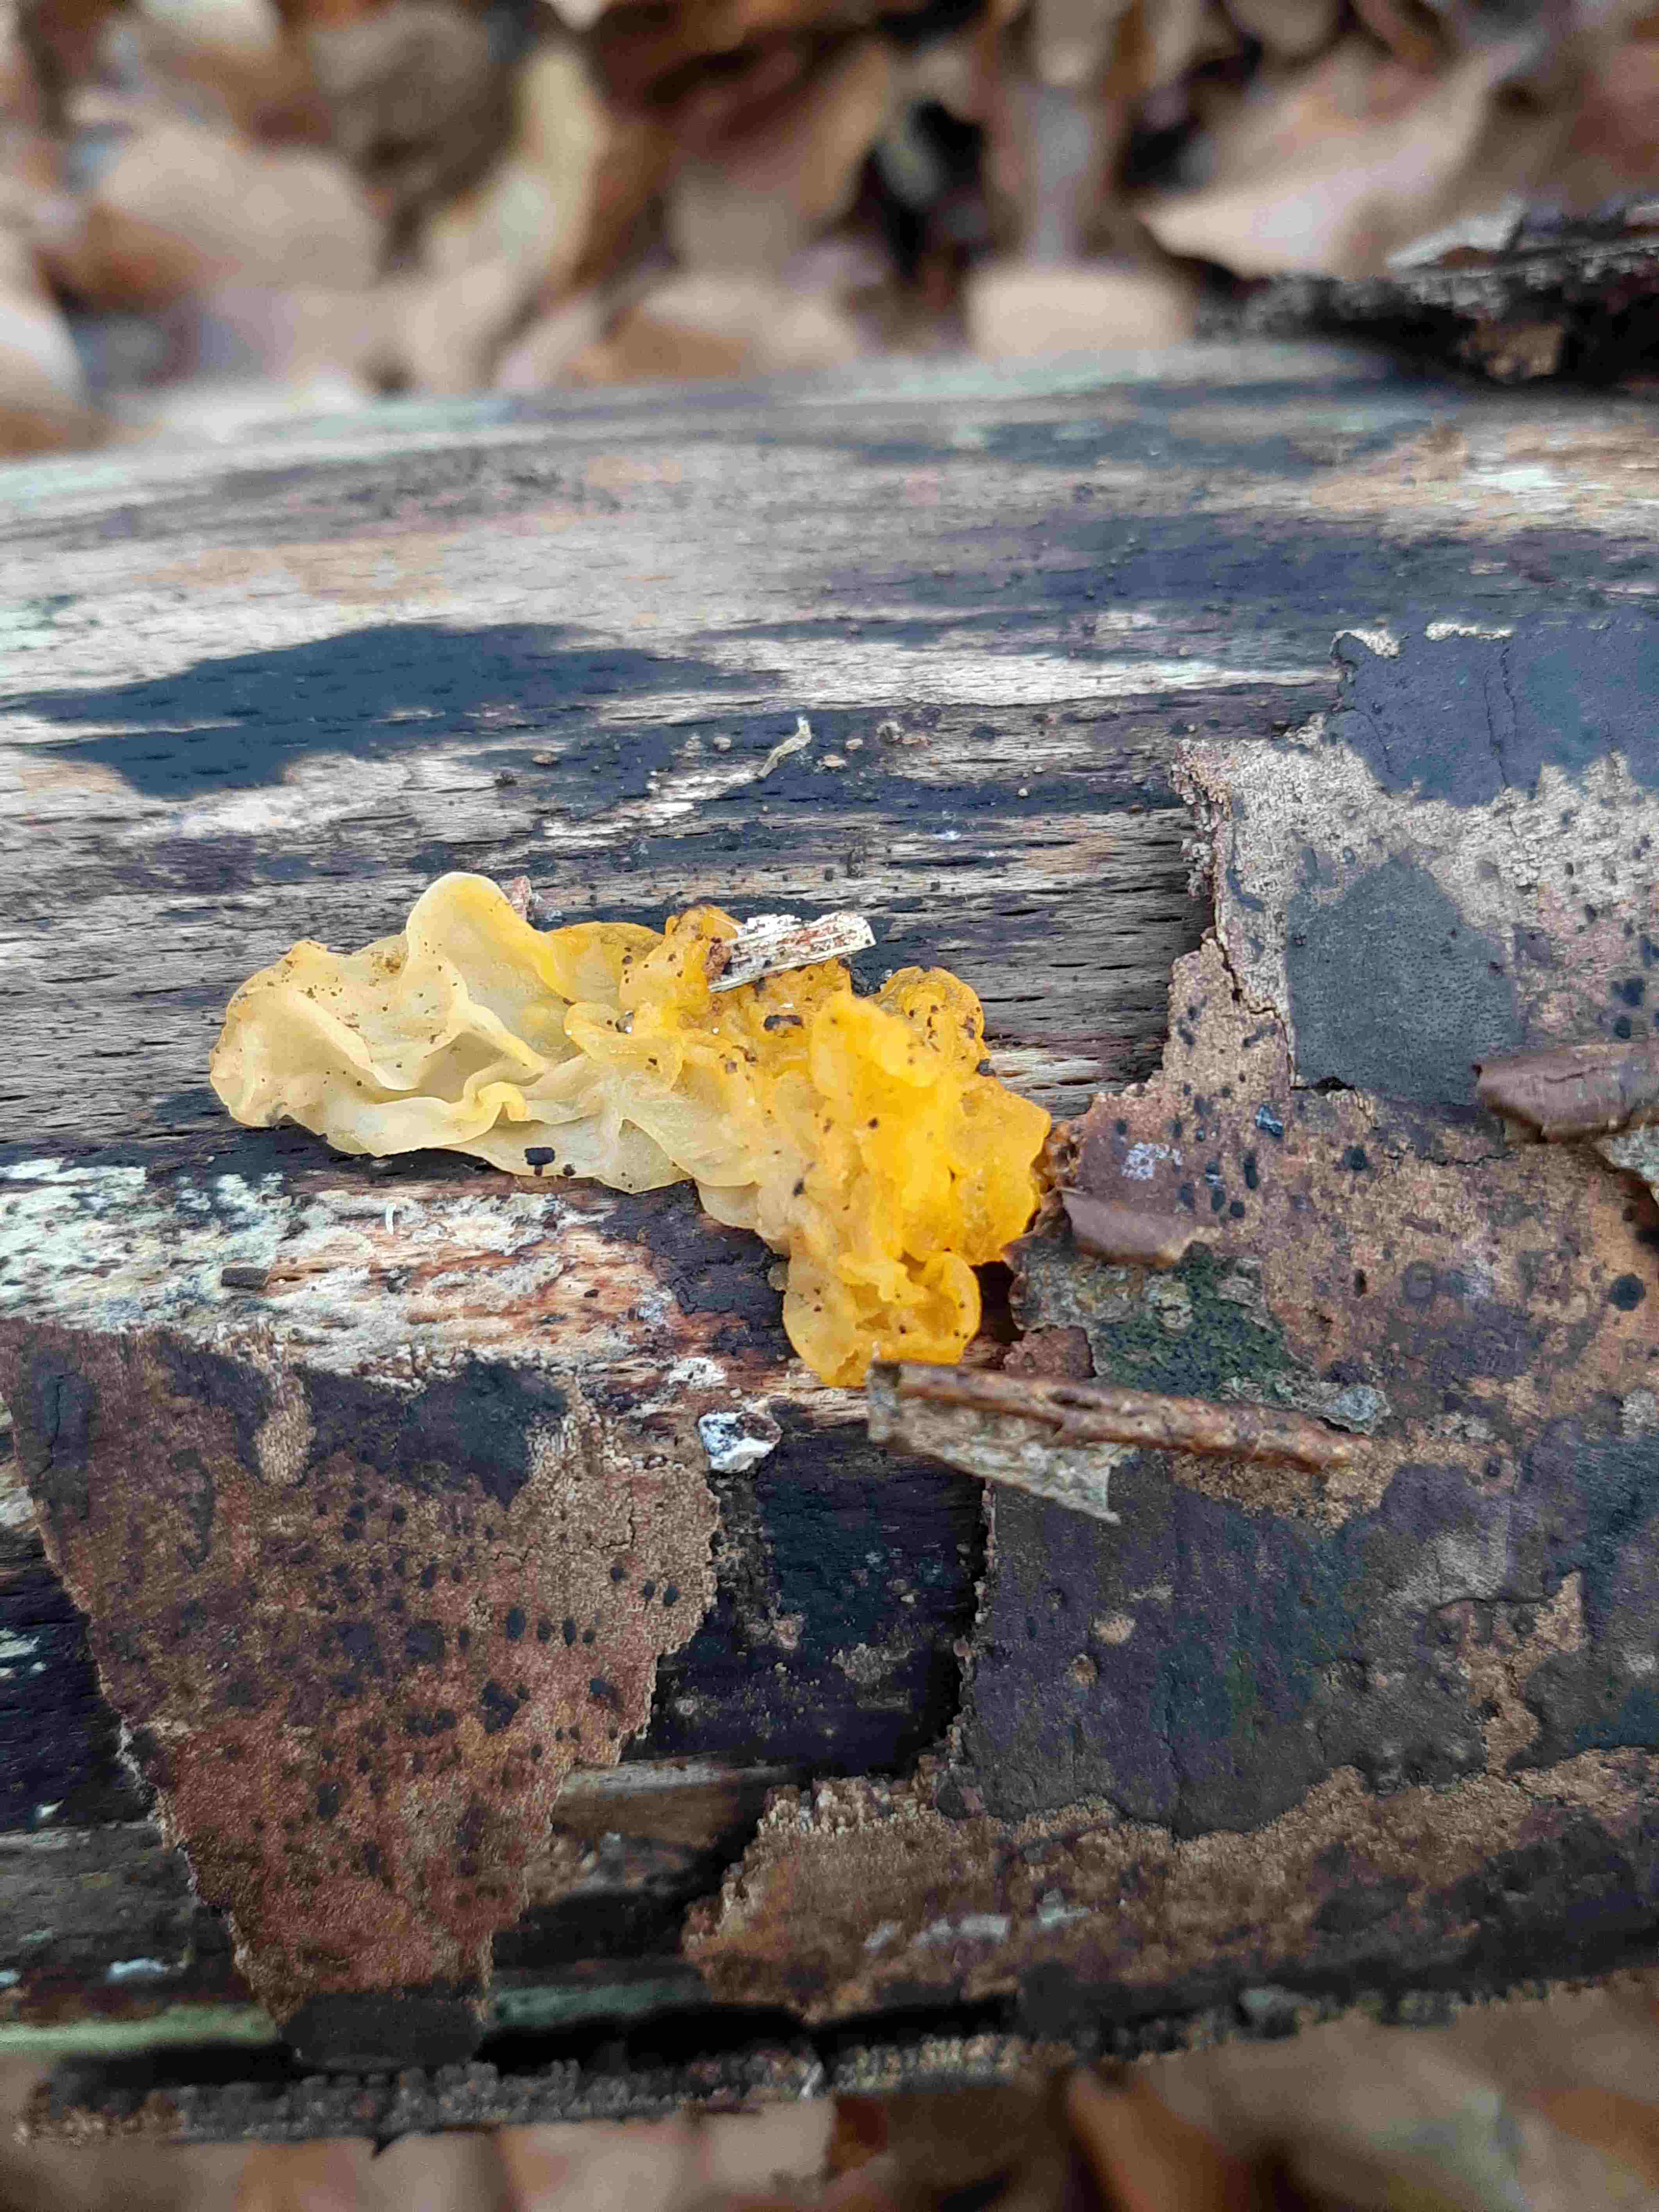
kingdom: Fungi
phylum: Basidiomycota
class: Tremellomycetes
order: Tremellales
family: Tremellaceae
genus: Tremella
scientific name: Tremella mesenterica
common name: gul bævresvamp
